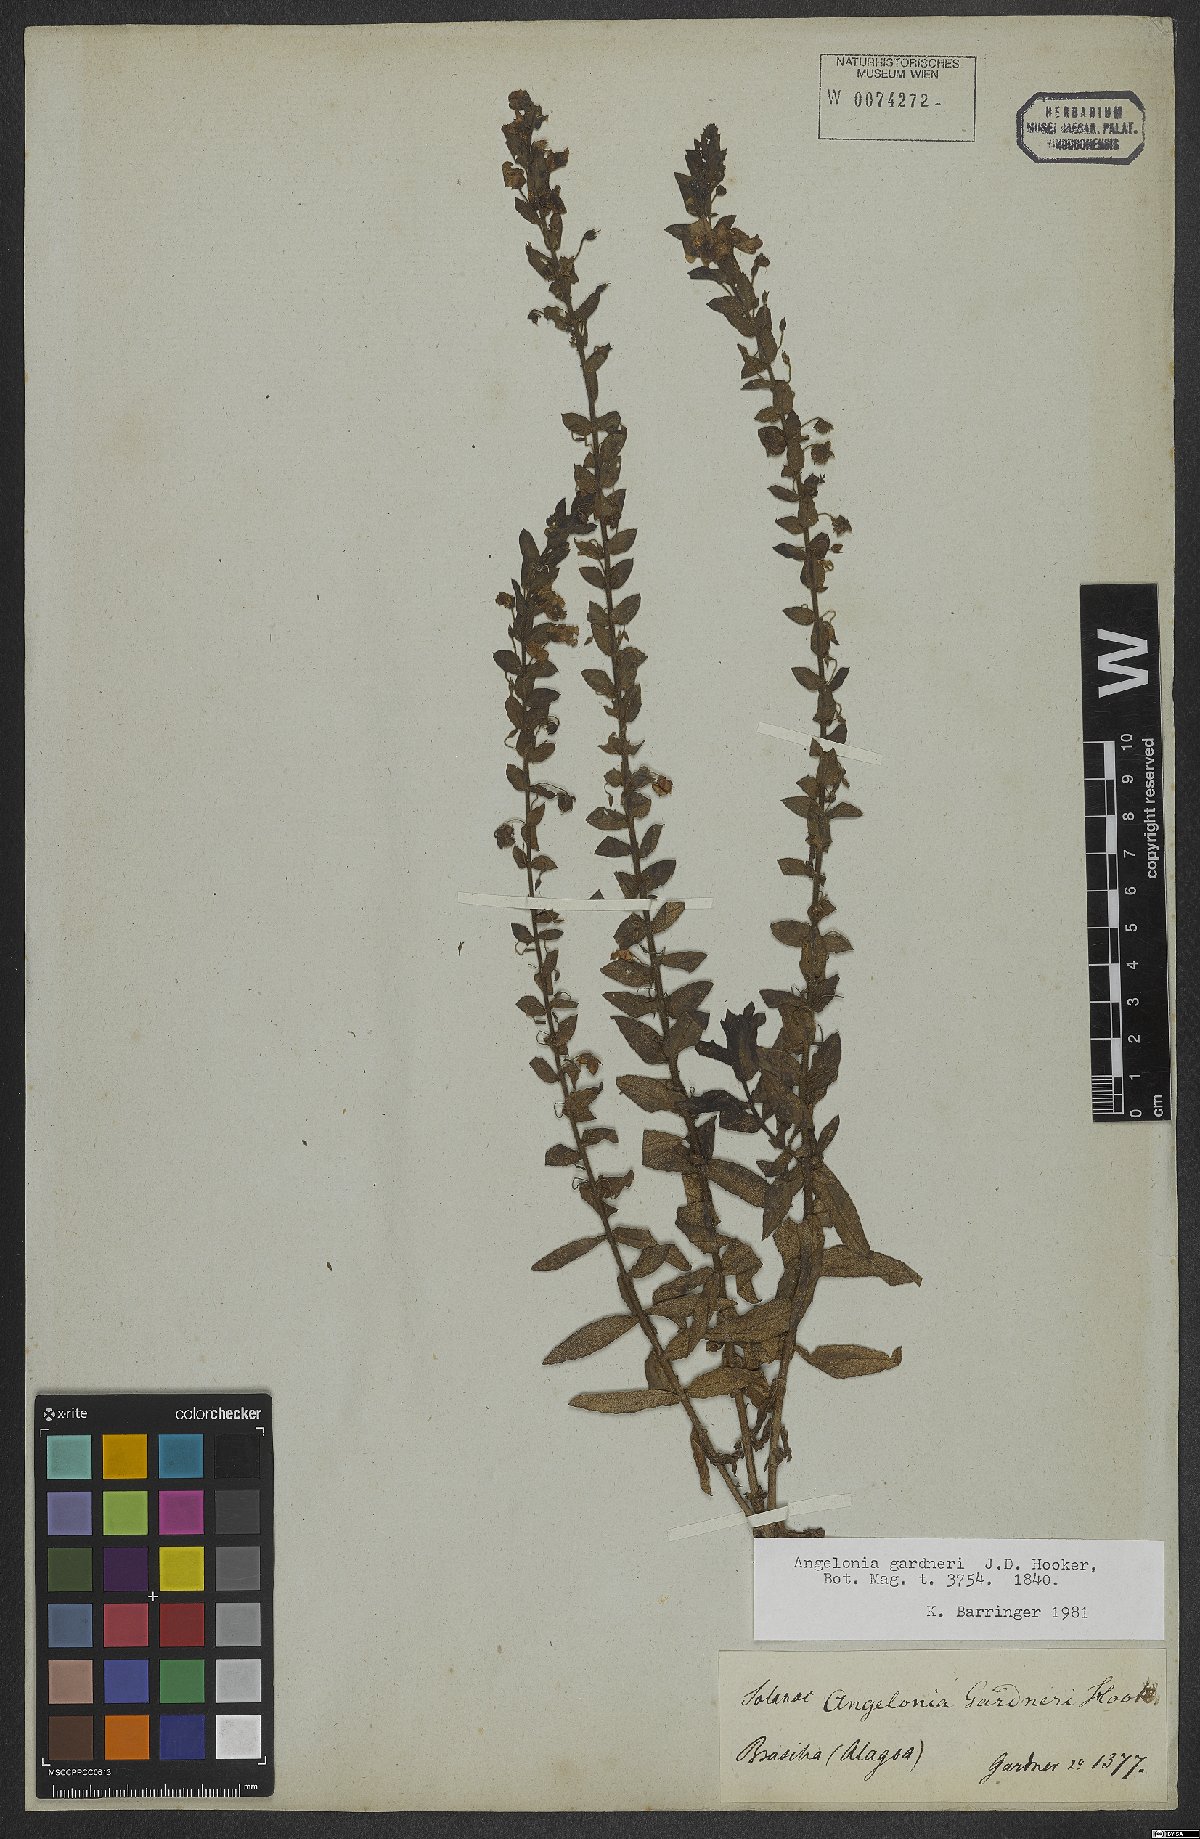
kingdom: Plantae
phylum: Tracheophyta
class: Magnoliopsida
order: Lamiales
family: Plantaginaceae
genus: Angelonia
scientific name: Angelonia gardneri
